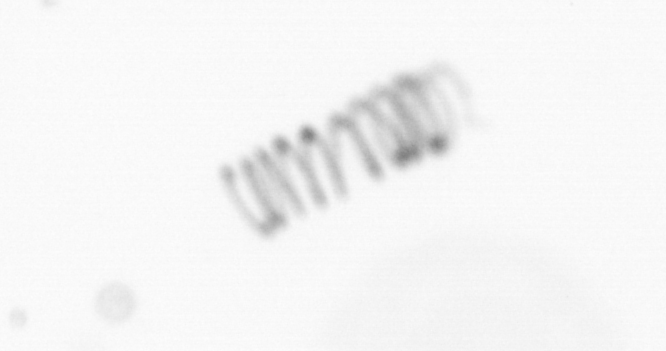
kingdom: Chromista
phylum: Ochrophyta
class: Bacillariophyceae
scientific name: Bacillariophyceae
